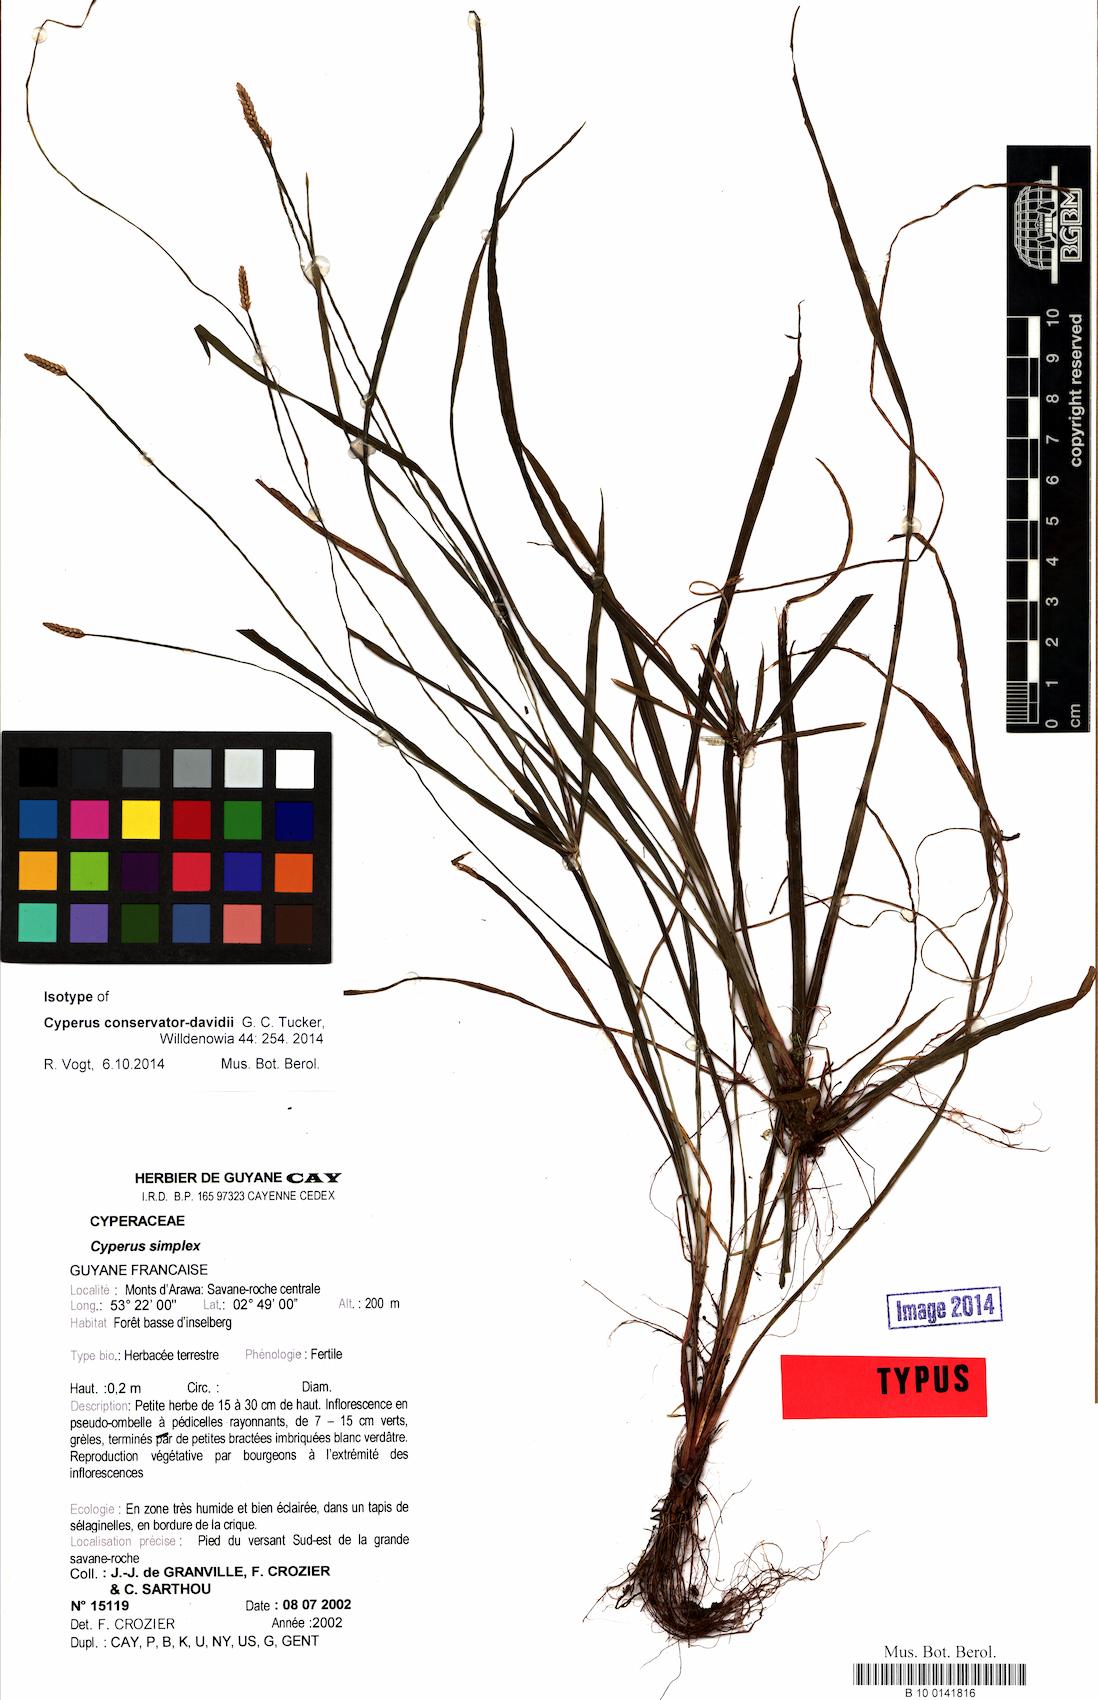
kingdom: Plantae
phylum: Tracheophyta
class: Liliopsida
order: Poales
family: Cyperaceae
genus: Cyperus
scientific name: Cyperus conservator-davidii
